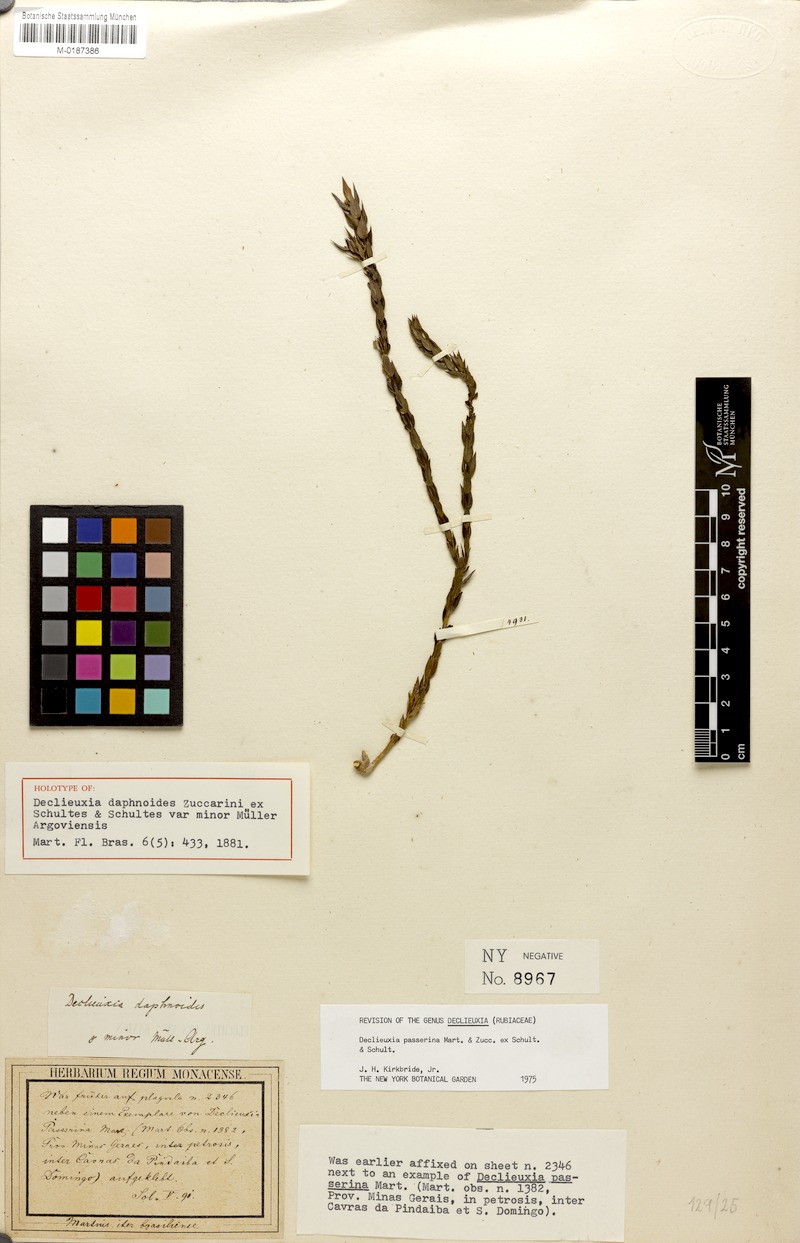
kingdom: Plantae
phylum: Tracheophyta
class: Magnoliopsida
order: Gentianales
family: Rubiaceae
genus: Declieuxia
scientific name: Declieuxia passerina
